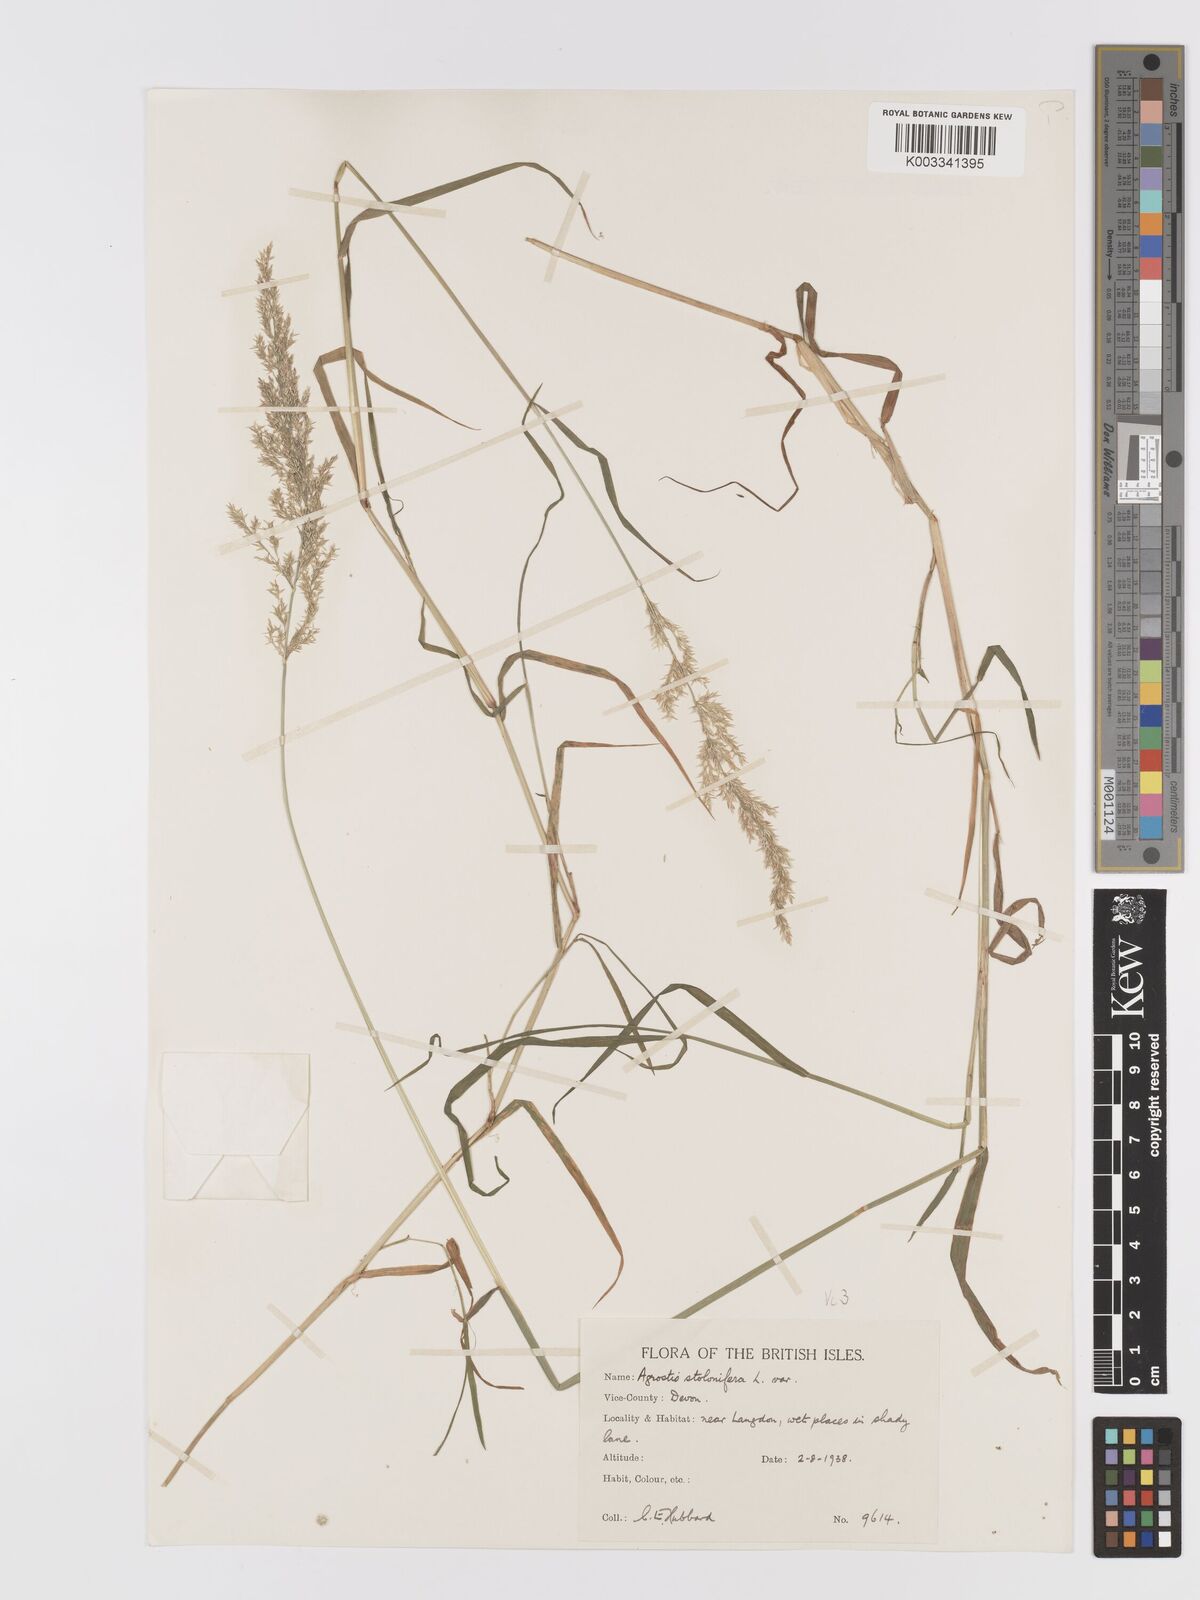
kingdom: Plantae
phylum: Tracheophyta
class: Liliopsida
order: Poales
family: Poaceae
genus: Agrostis
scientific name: Agrostis stolonifera
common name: Creeping bentgrass
